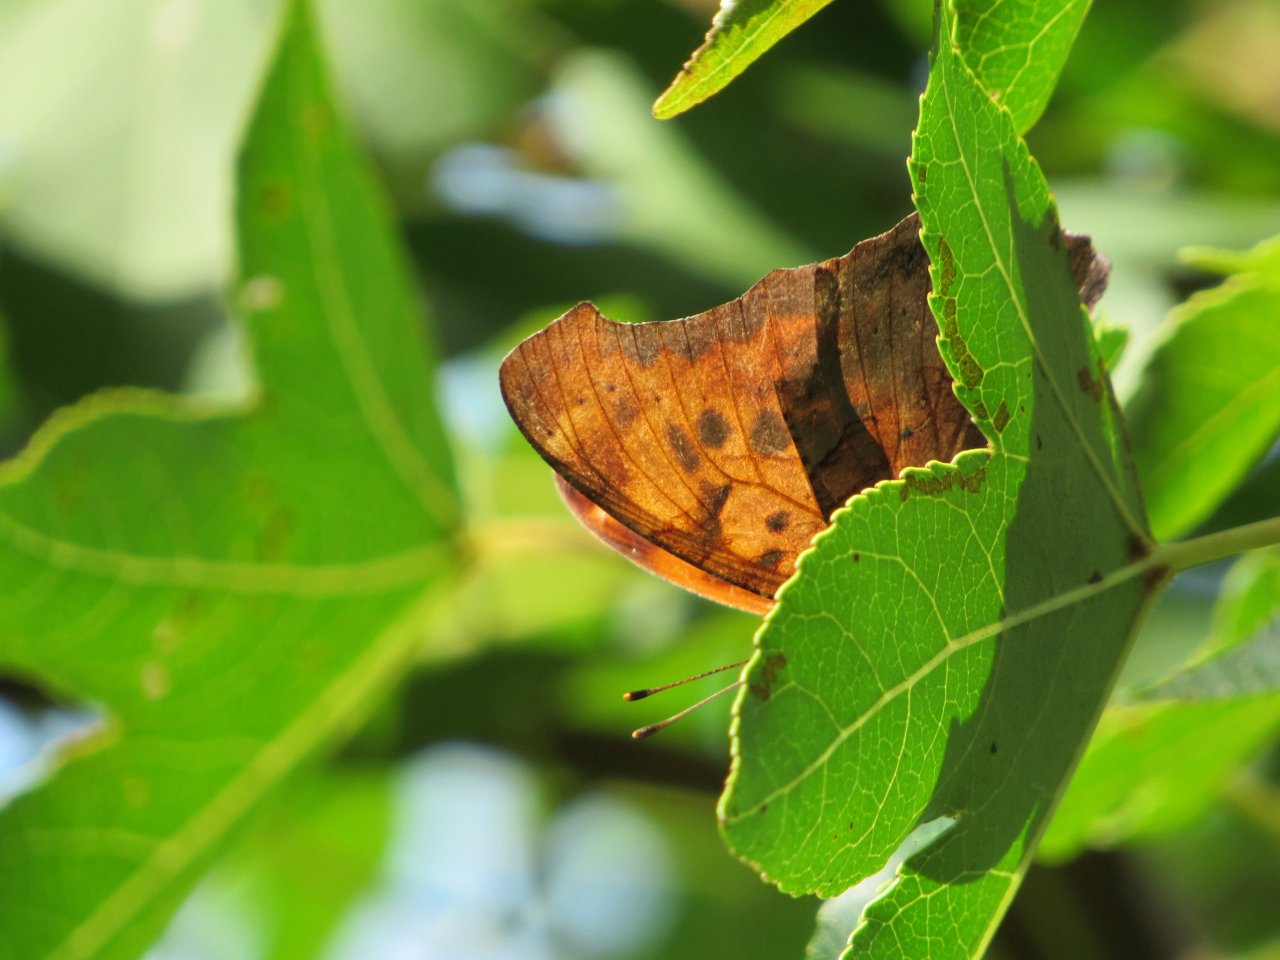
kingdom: Animalia
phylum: Arthropoda
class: Insecta
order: Lepidoptera
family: Nymphalidae
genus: Polygonia
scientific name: Polygonia interrogationis
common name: Question Mark
